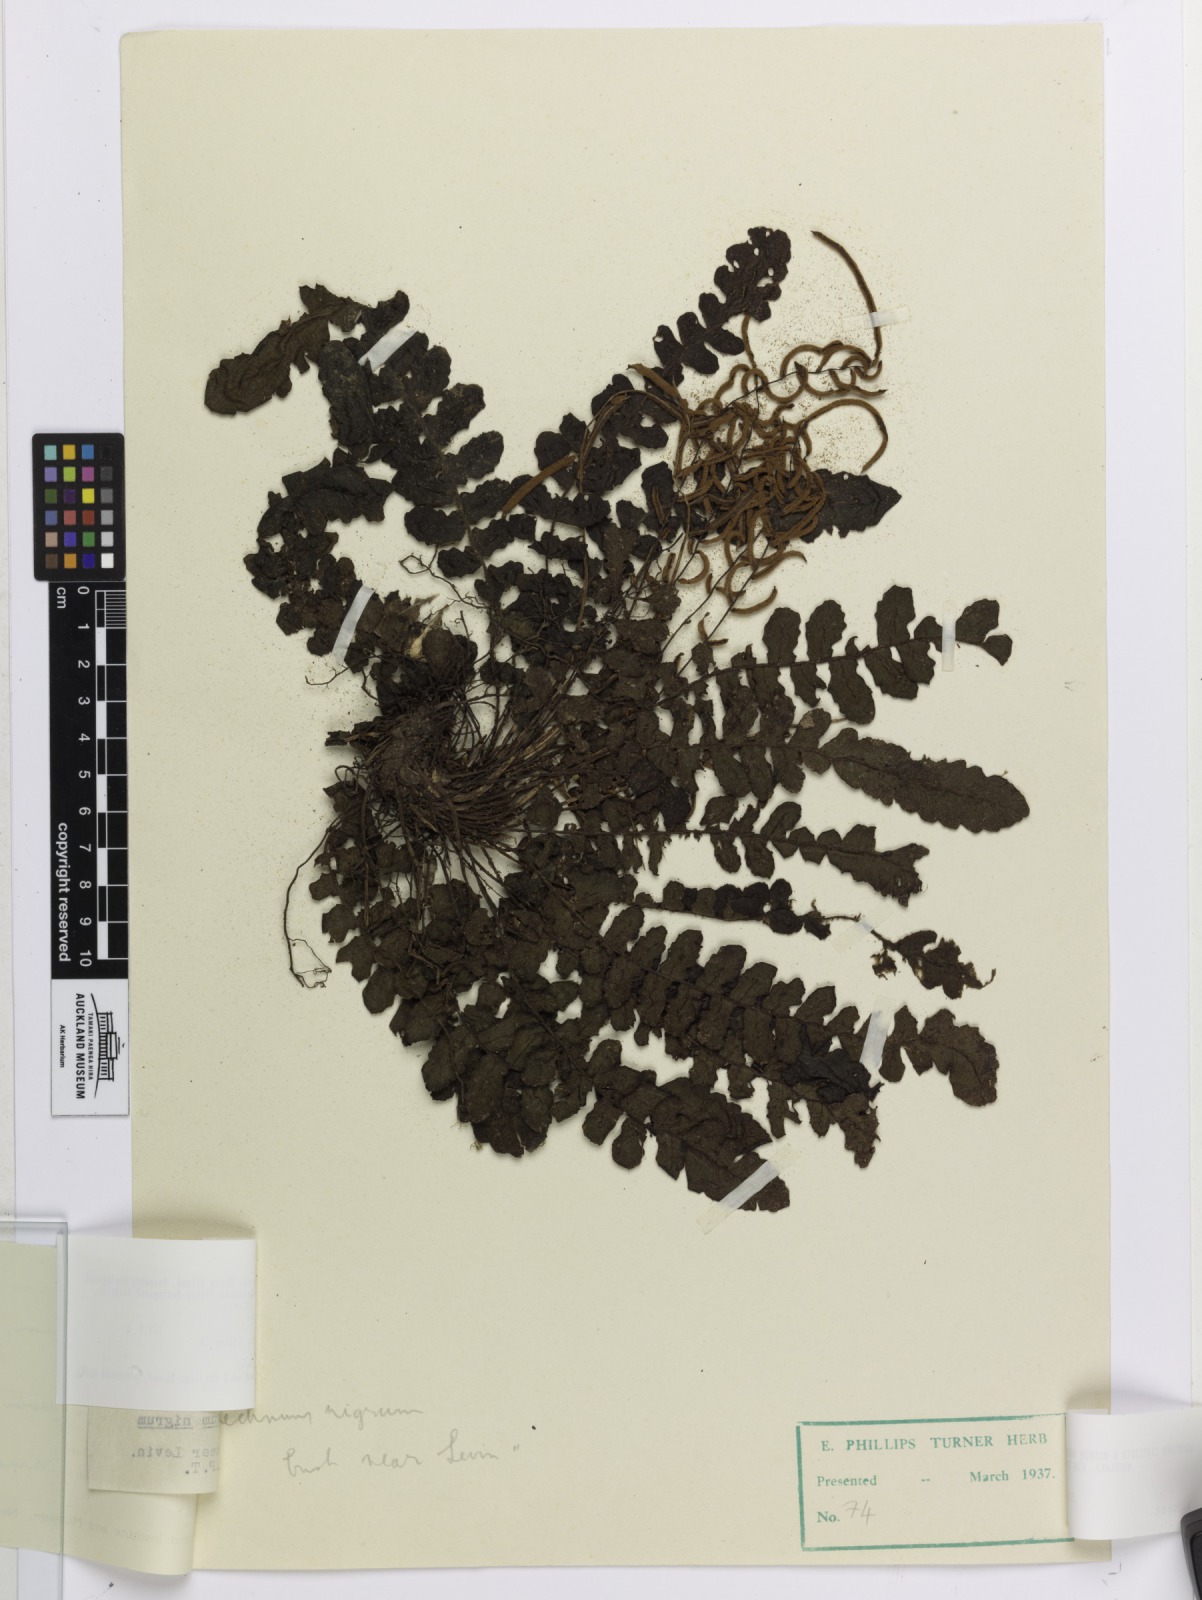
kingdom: Plantae
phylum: Tracheophyta
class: Polypodiopsida
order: Polypodiales
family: Blechnaceae
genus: Cranfillia
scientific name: Cranfillia nigra
